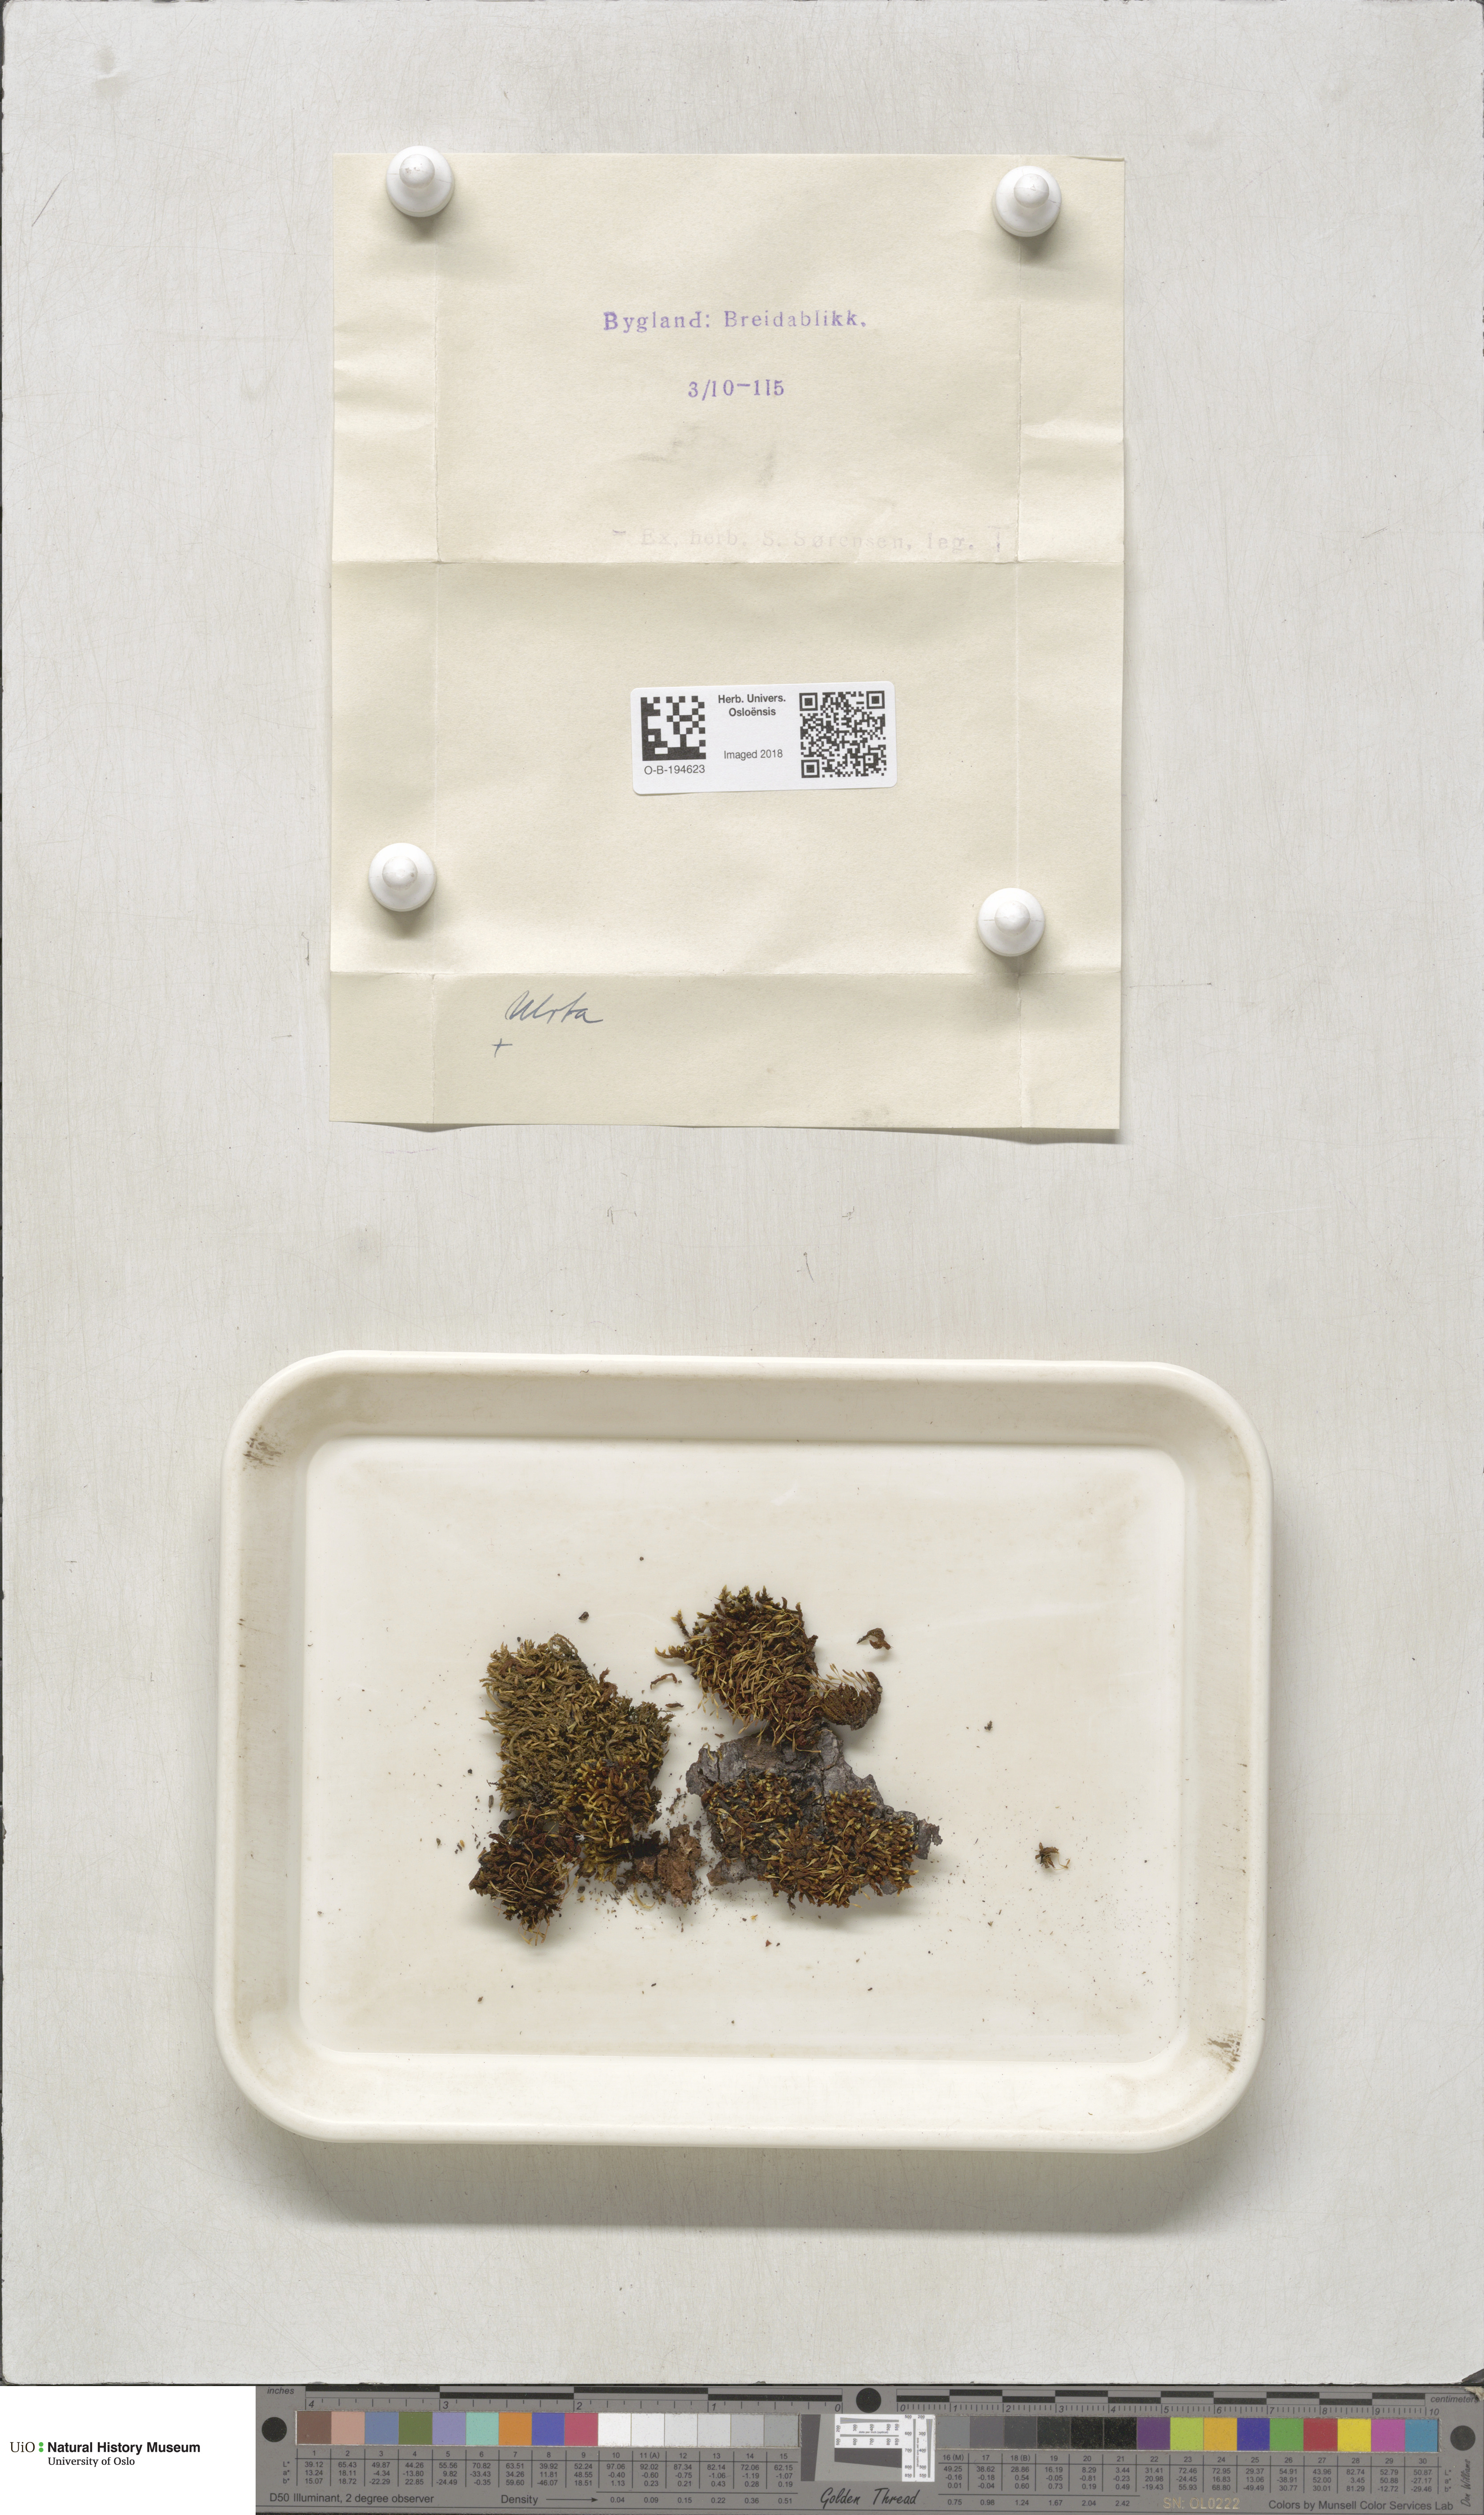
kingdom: Plantae
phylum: Bryophyta
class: Bryopsida
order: Orthotrichales
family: Orthotrichaceae
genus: Ulota
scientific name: Ulota
